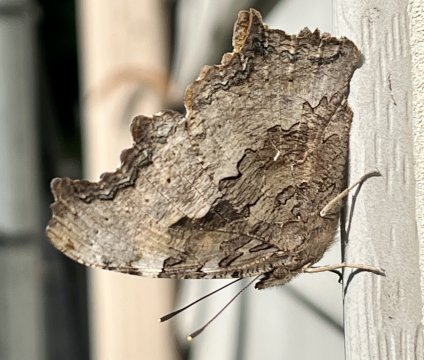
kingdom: Animalia
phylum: Arthropoda
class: Insecta
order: Lepidoptera
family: Nymphalidae
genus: Polygonia
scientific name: Polygonia vaualbum
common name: Compton Tortoiseshell
